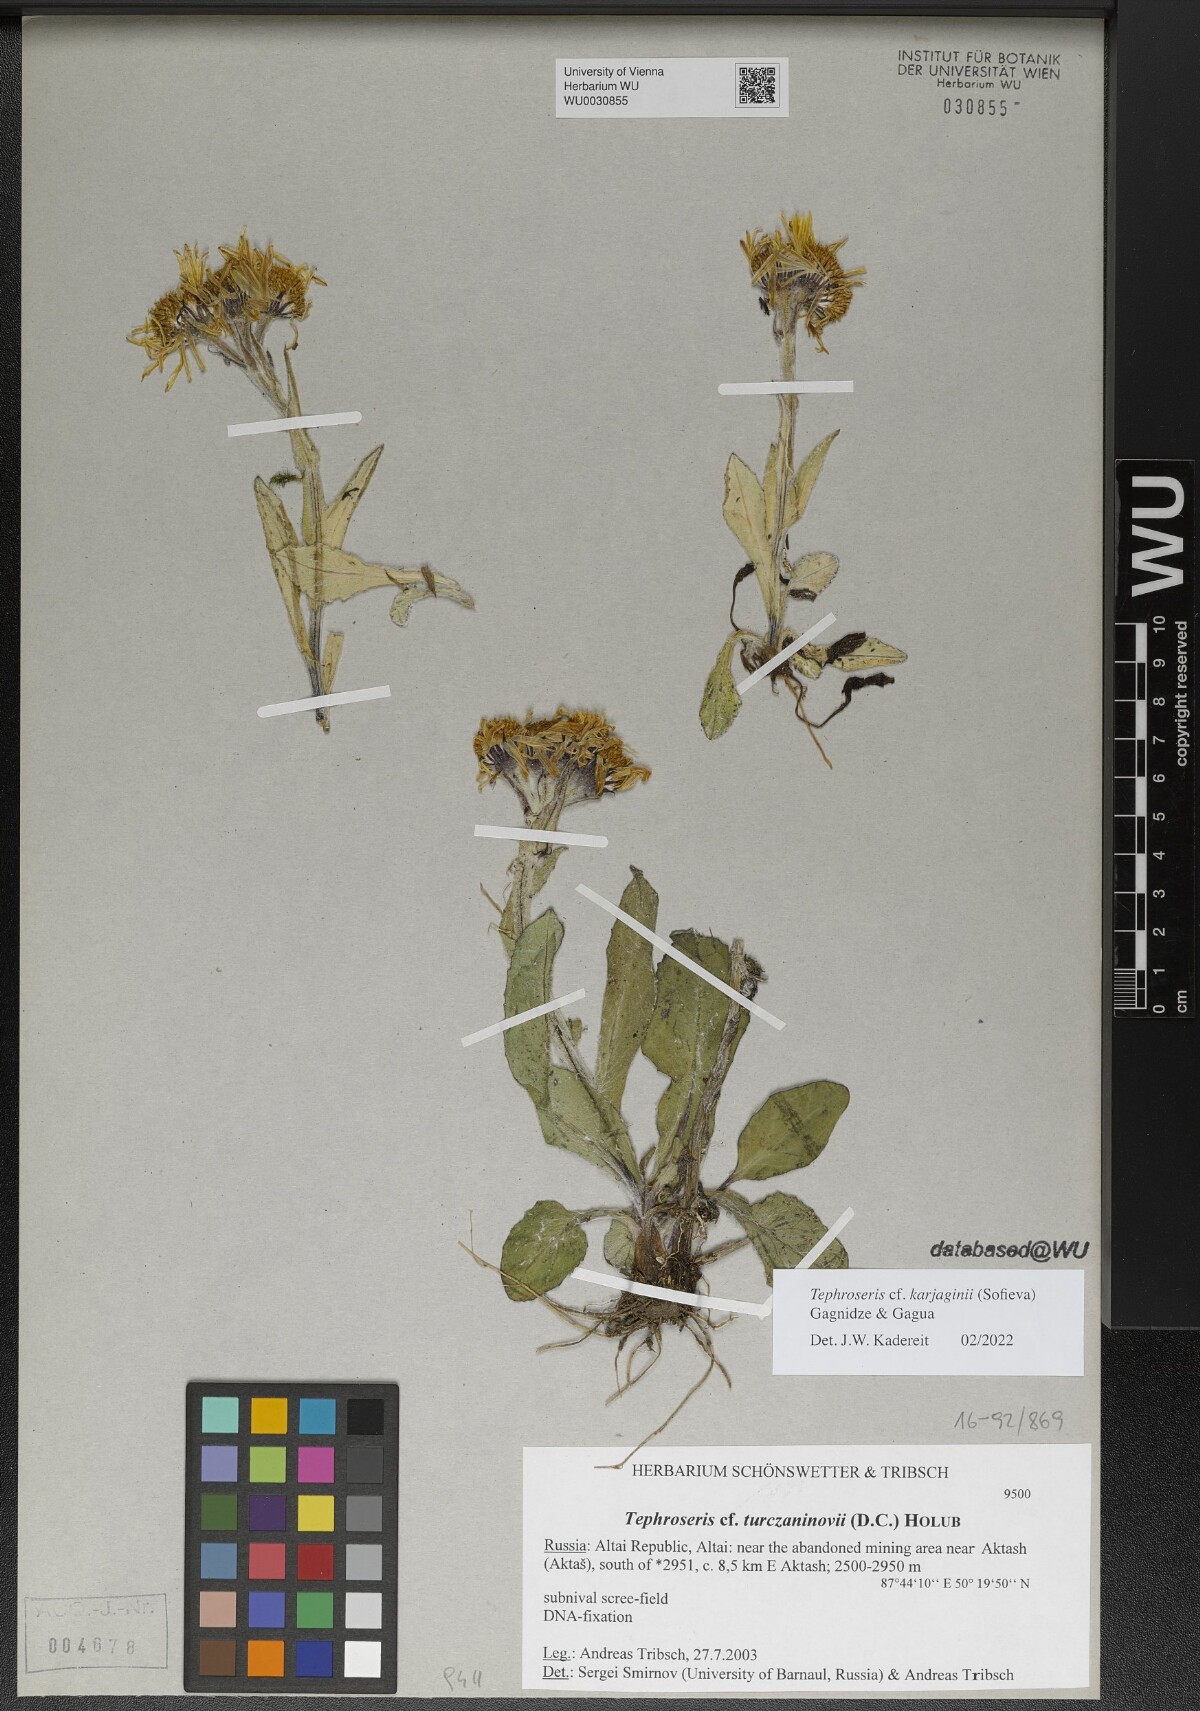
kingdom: Plantae
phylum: Tracheophyta
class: Magnoliopsida
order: Asterales
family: Asteraceae
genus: Tephroseris
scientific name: Tephroseris integrifolia
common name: Field fleawort
